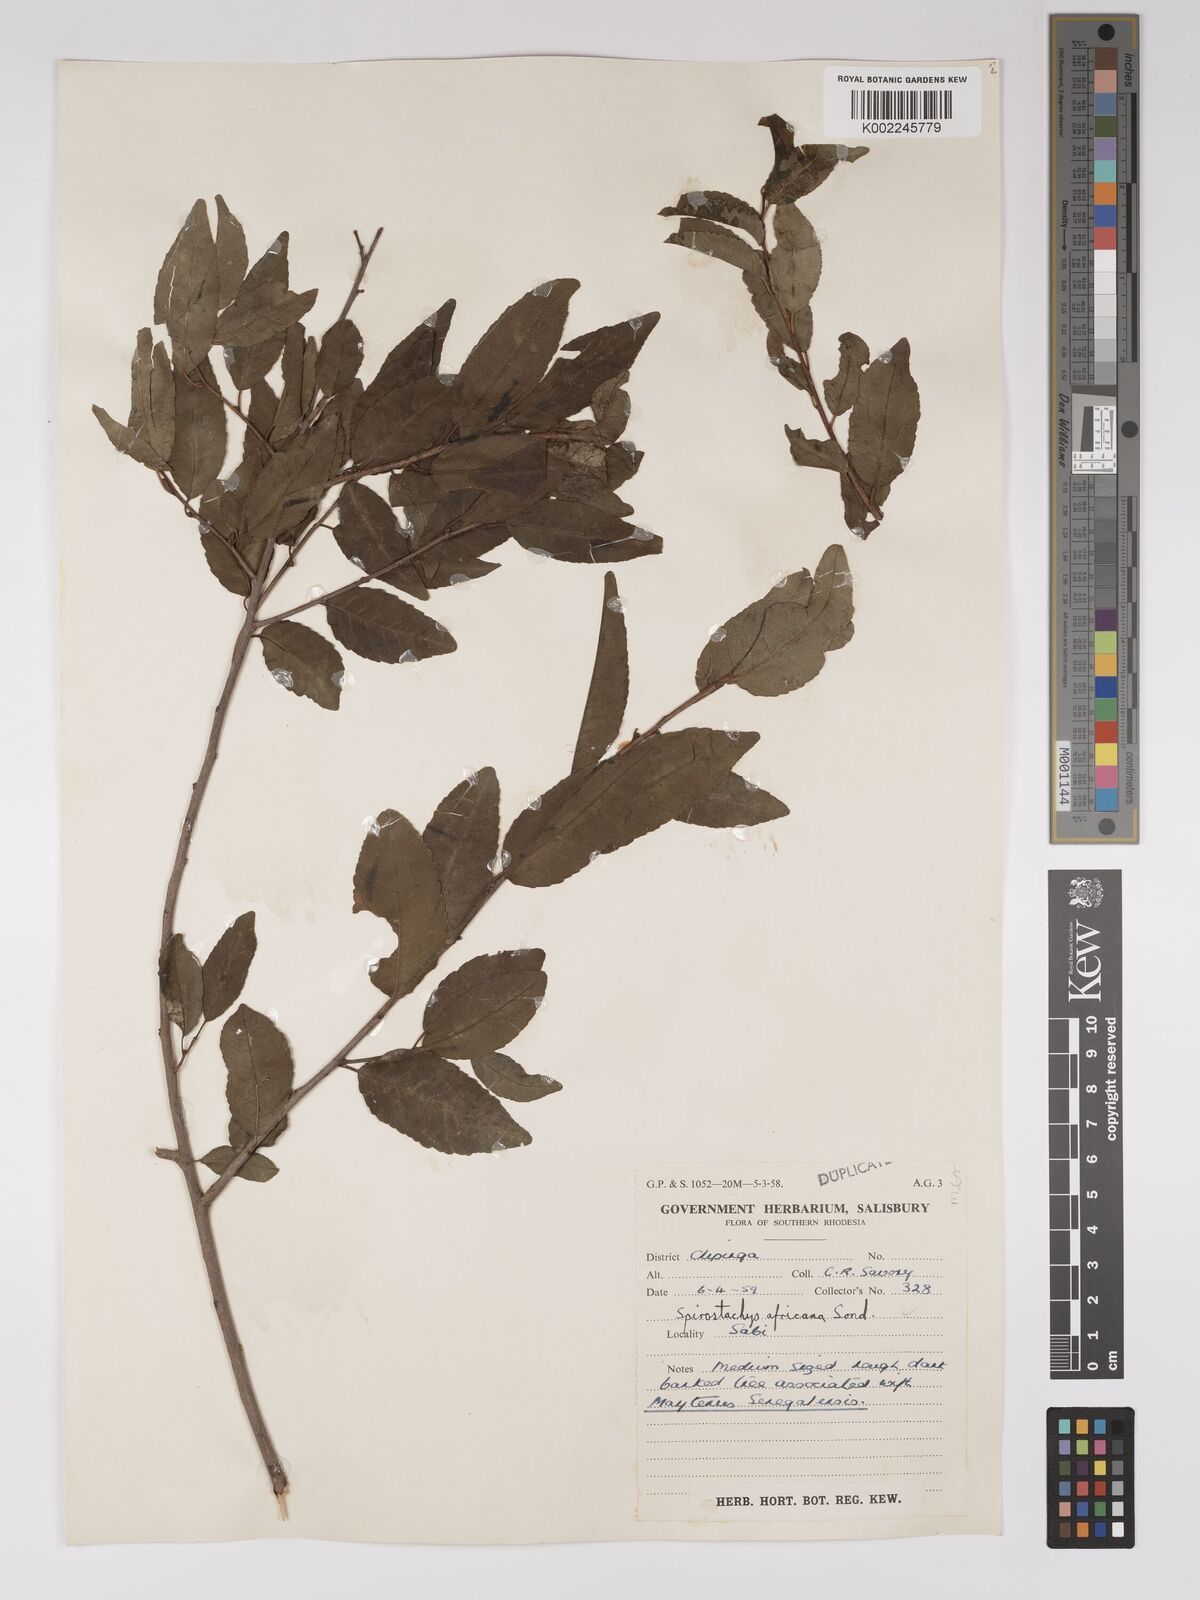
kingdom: Plantae
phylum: Tracheophyta
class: Magnoliopsida
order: Malpighiales
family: Euphorbiaceae
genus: Spirostachys
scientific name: Spirostachys africana
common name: Tamboti
